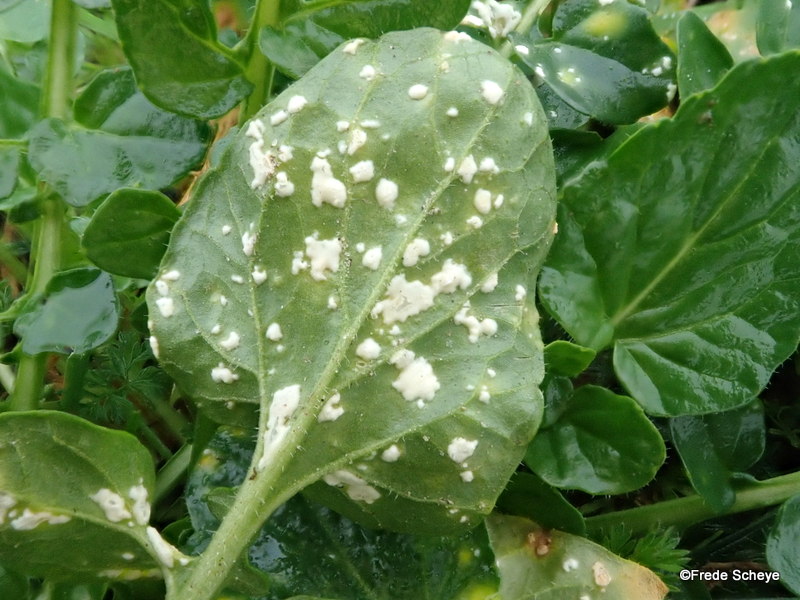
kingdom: Chromista
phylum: Oomycota
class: Peronosporea
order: Albuginales
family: Albuginaceae
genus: Albugo
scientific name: Albugo candida
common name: Crucifer white blister
